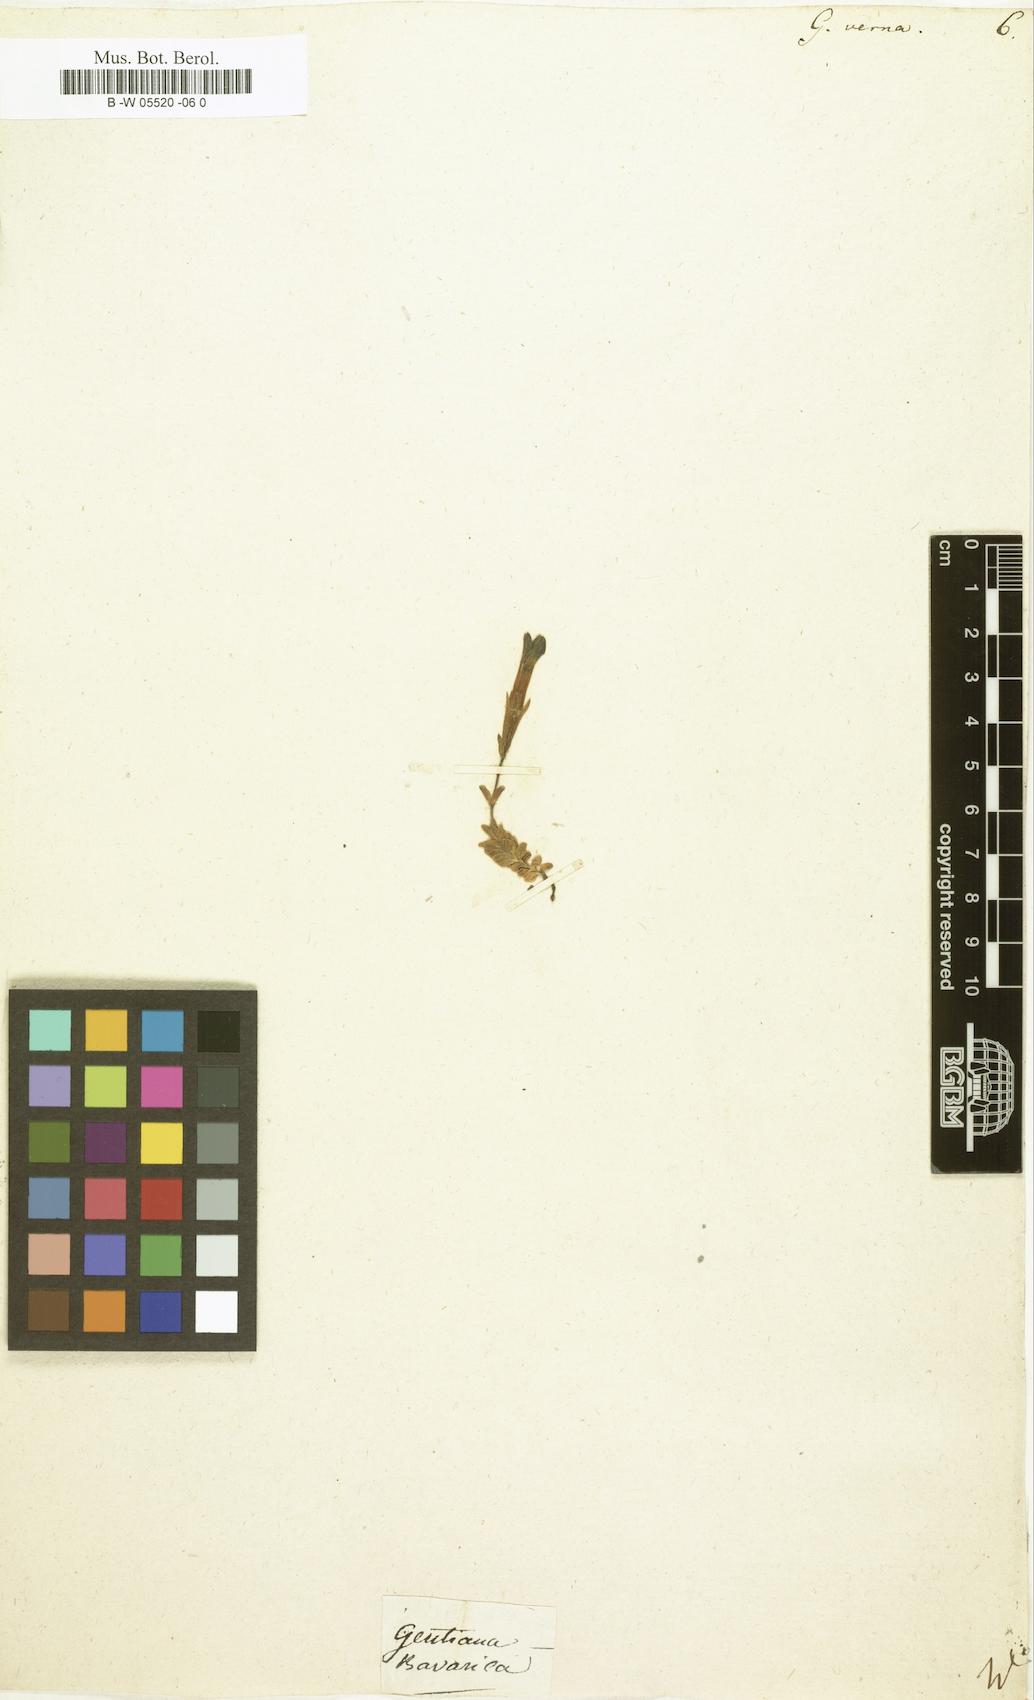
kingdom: Plantae
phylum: Tracheophyta
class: Magnoliopsida
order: Gentianales
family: Gentianaceae
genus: Gentiana
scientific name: Gentiana verna
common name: Spring gentian
